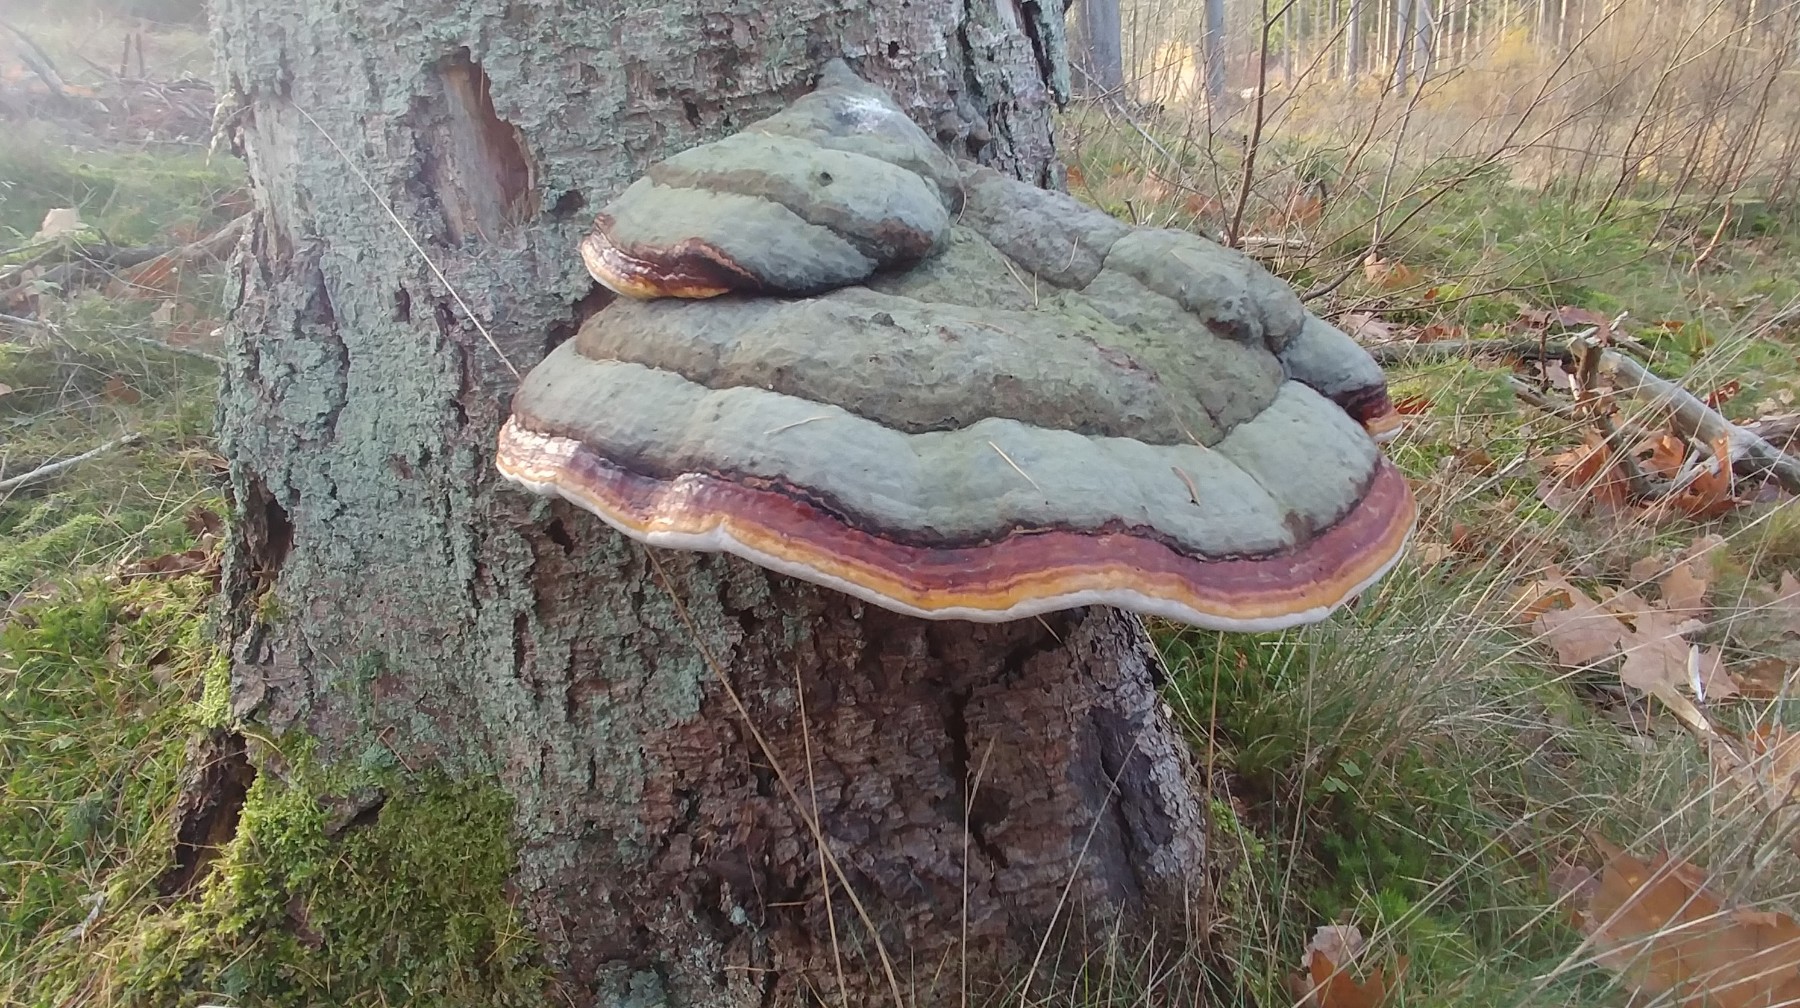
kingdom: Fungi
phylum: Basidiomycota
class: Agaricomycetes
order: Polyporales
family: Fomitopsidaceae
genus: Fomitopsis
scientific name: Fomitopsis pinicola
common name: randbæltet hovporesvamp
